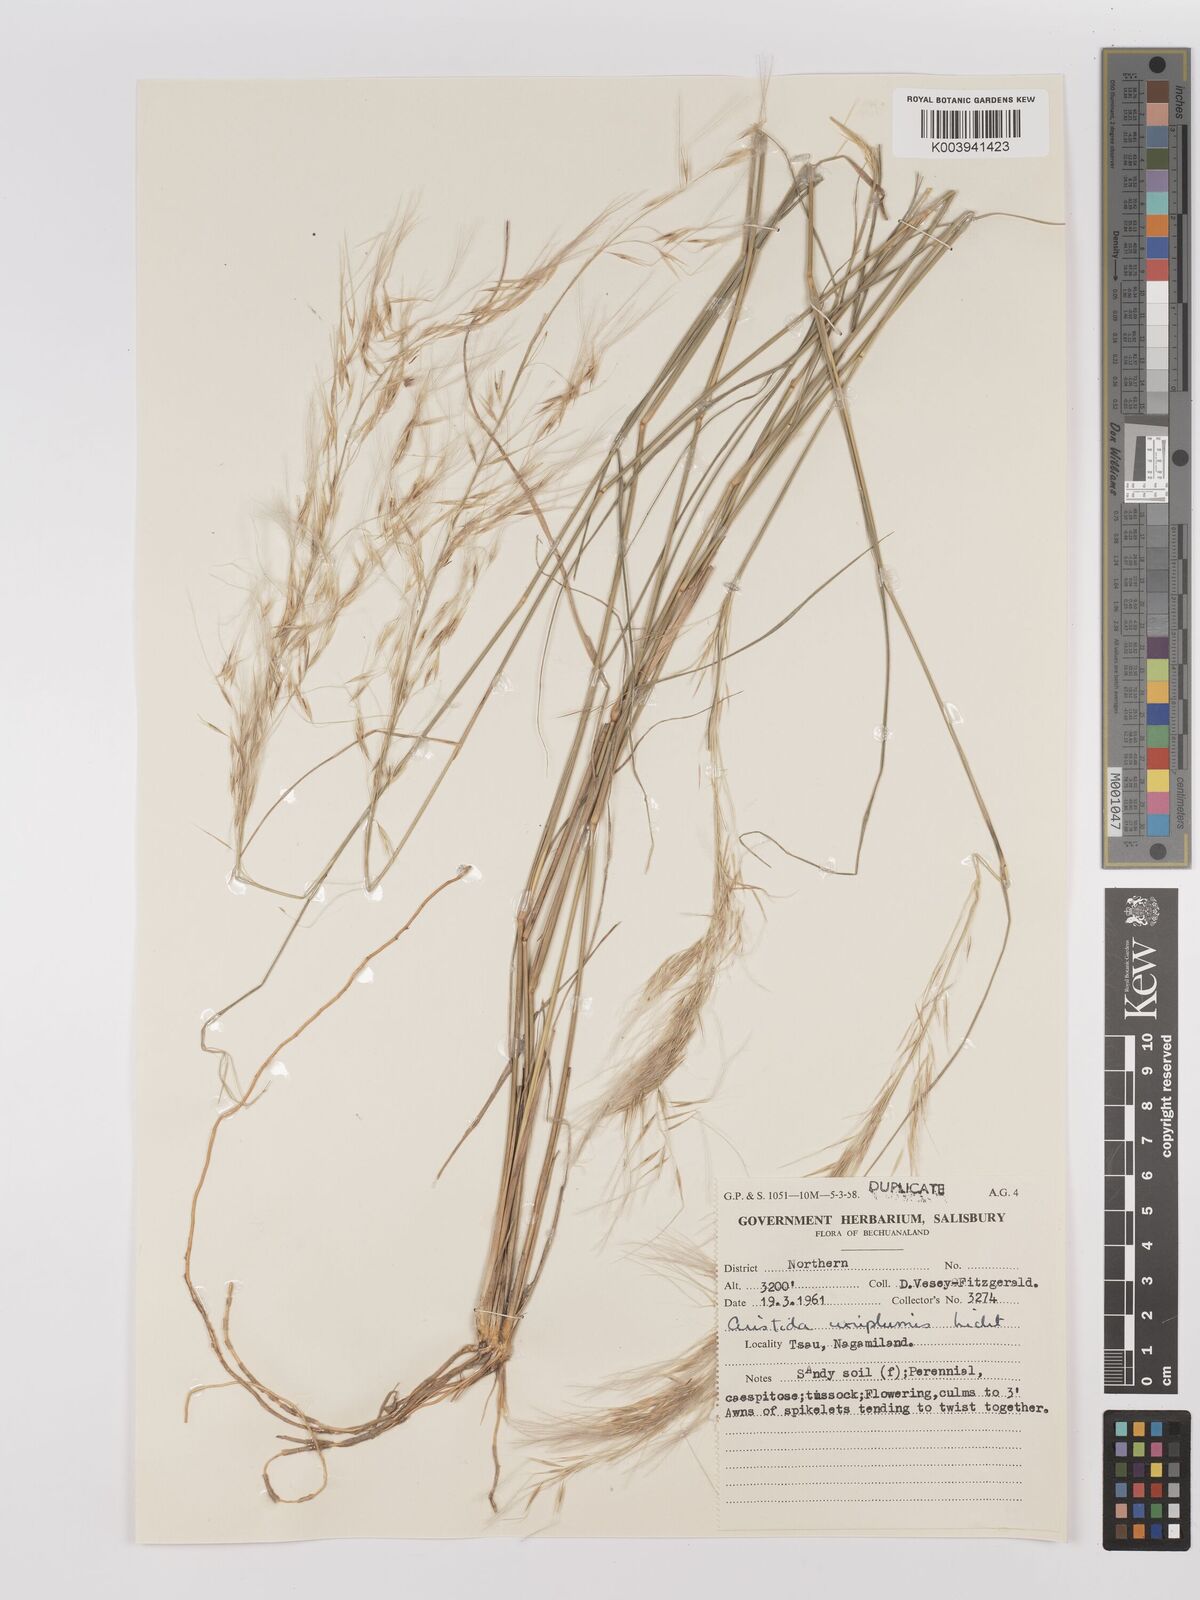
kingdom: Plantae
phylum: Tracheophyta
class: Liliopsida
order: Poales
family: Poaceae
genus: Stipagrostis
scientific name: Stipagrostis uniplumis
